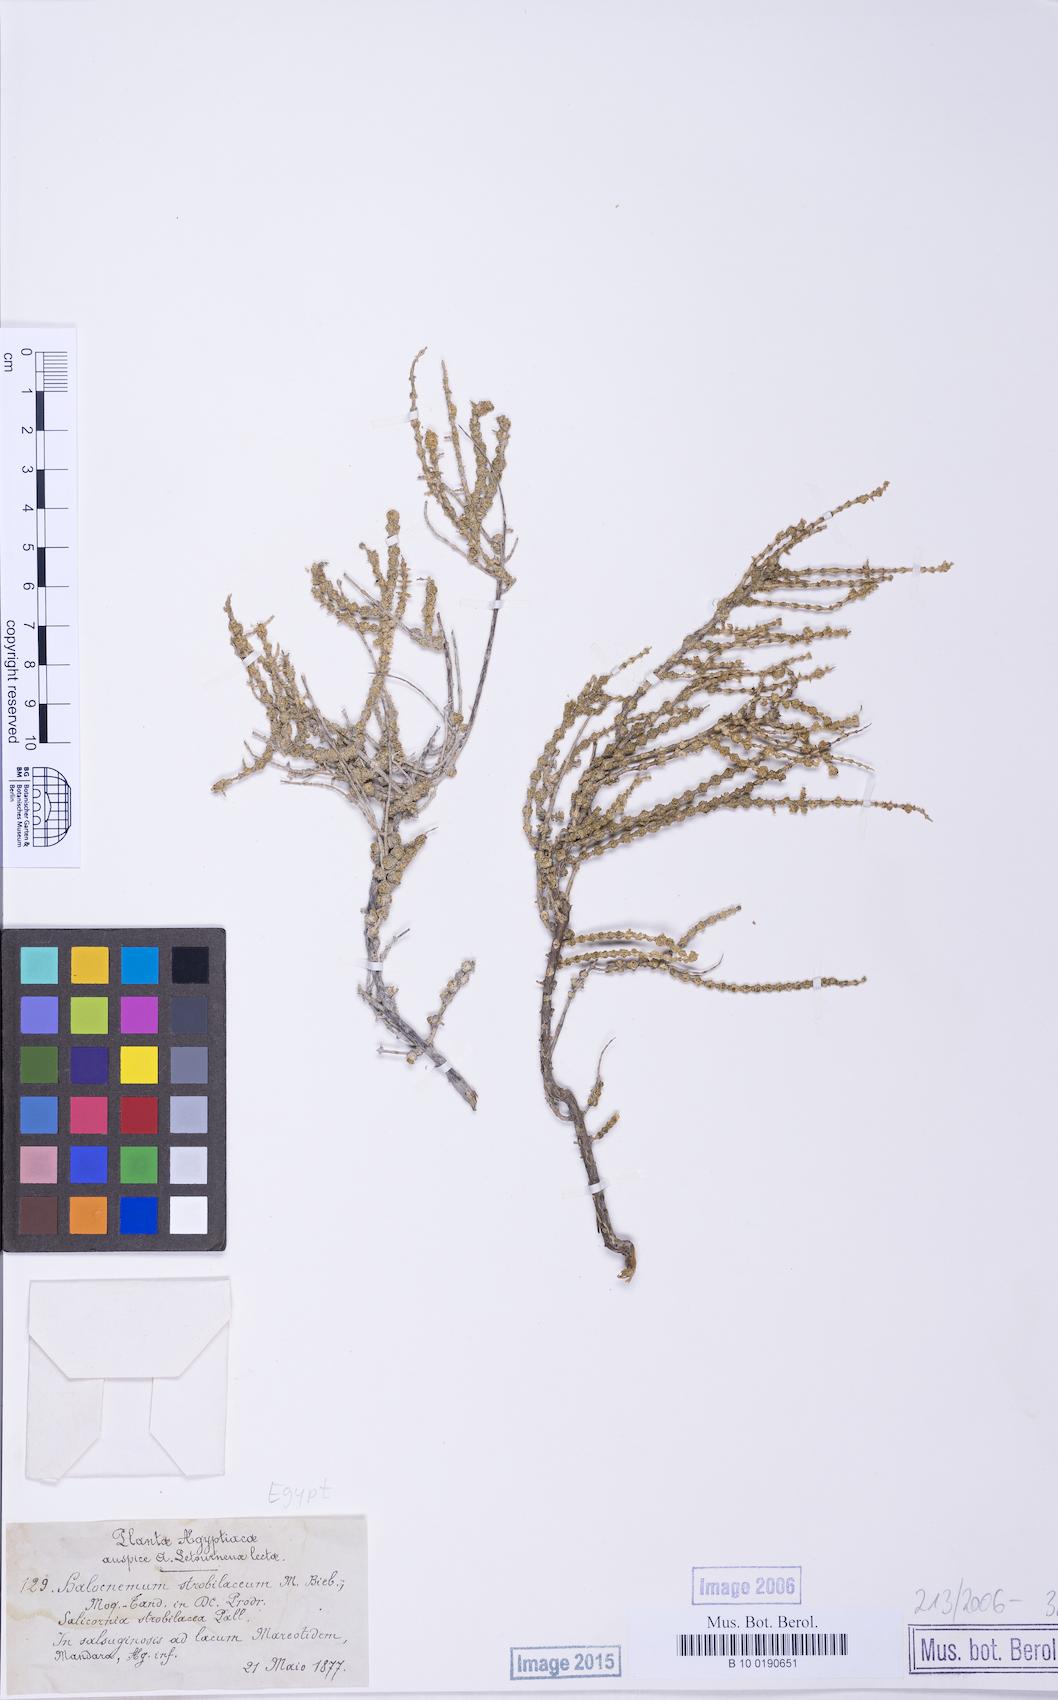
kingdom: Plantae
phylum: Tracheophyta
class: Magnoliopsida
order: Caryophyllales
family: Amaranthaceae
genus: Halocnemum
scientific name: Halocnemum strobilaceum
